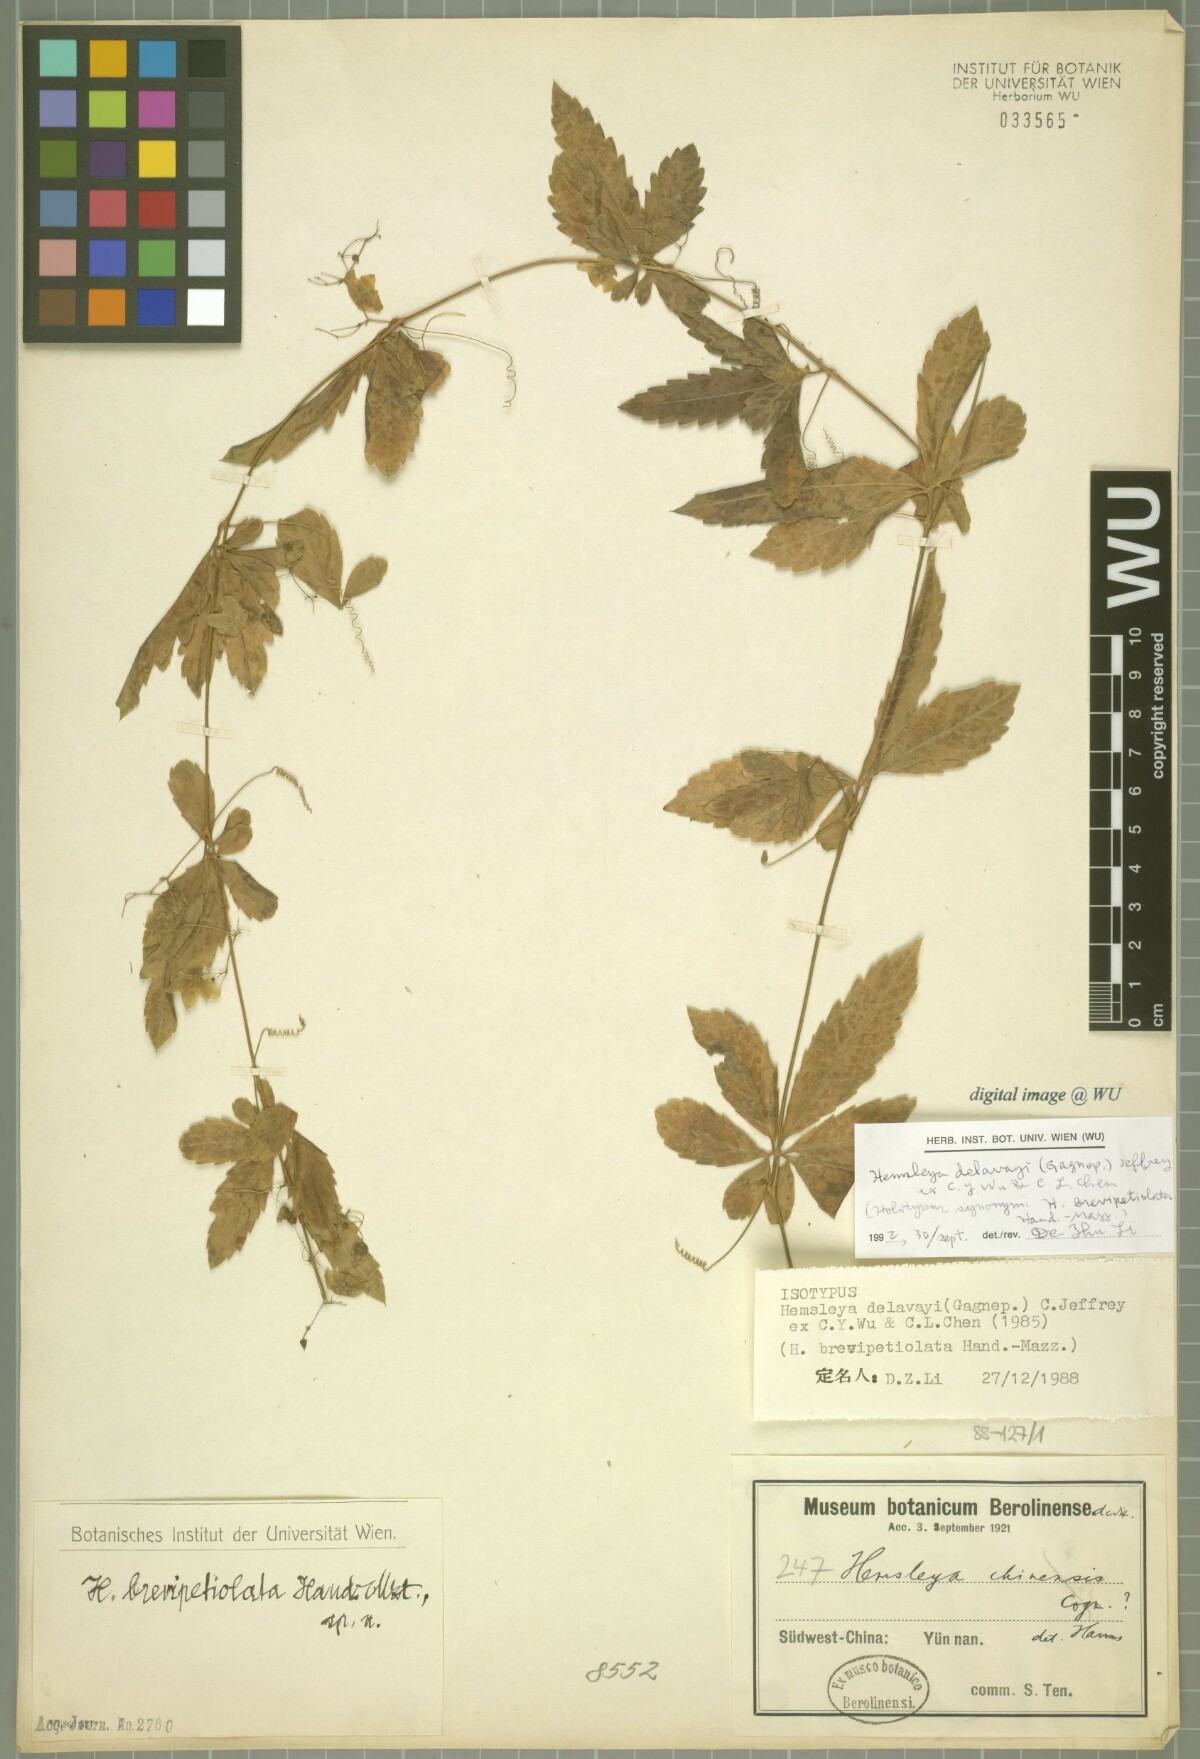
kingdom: Plantae
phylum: Tracheophyta
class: Magnoliopsida
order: Cucurbitales
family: Cucurbitaceae
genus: Hemsleya
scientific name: Hemsleya delavayi
